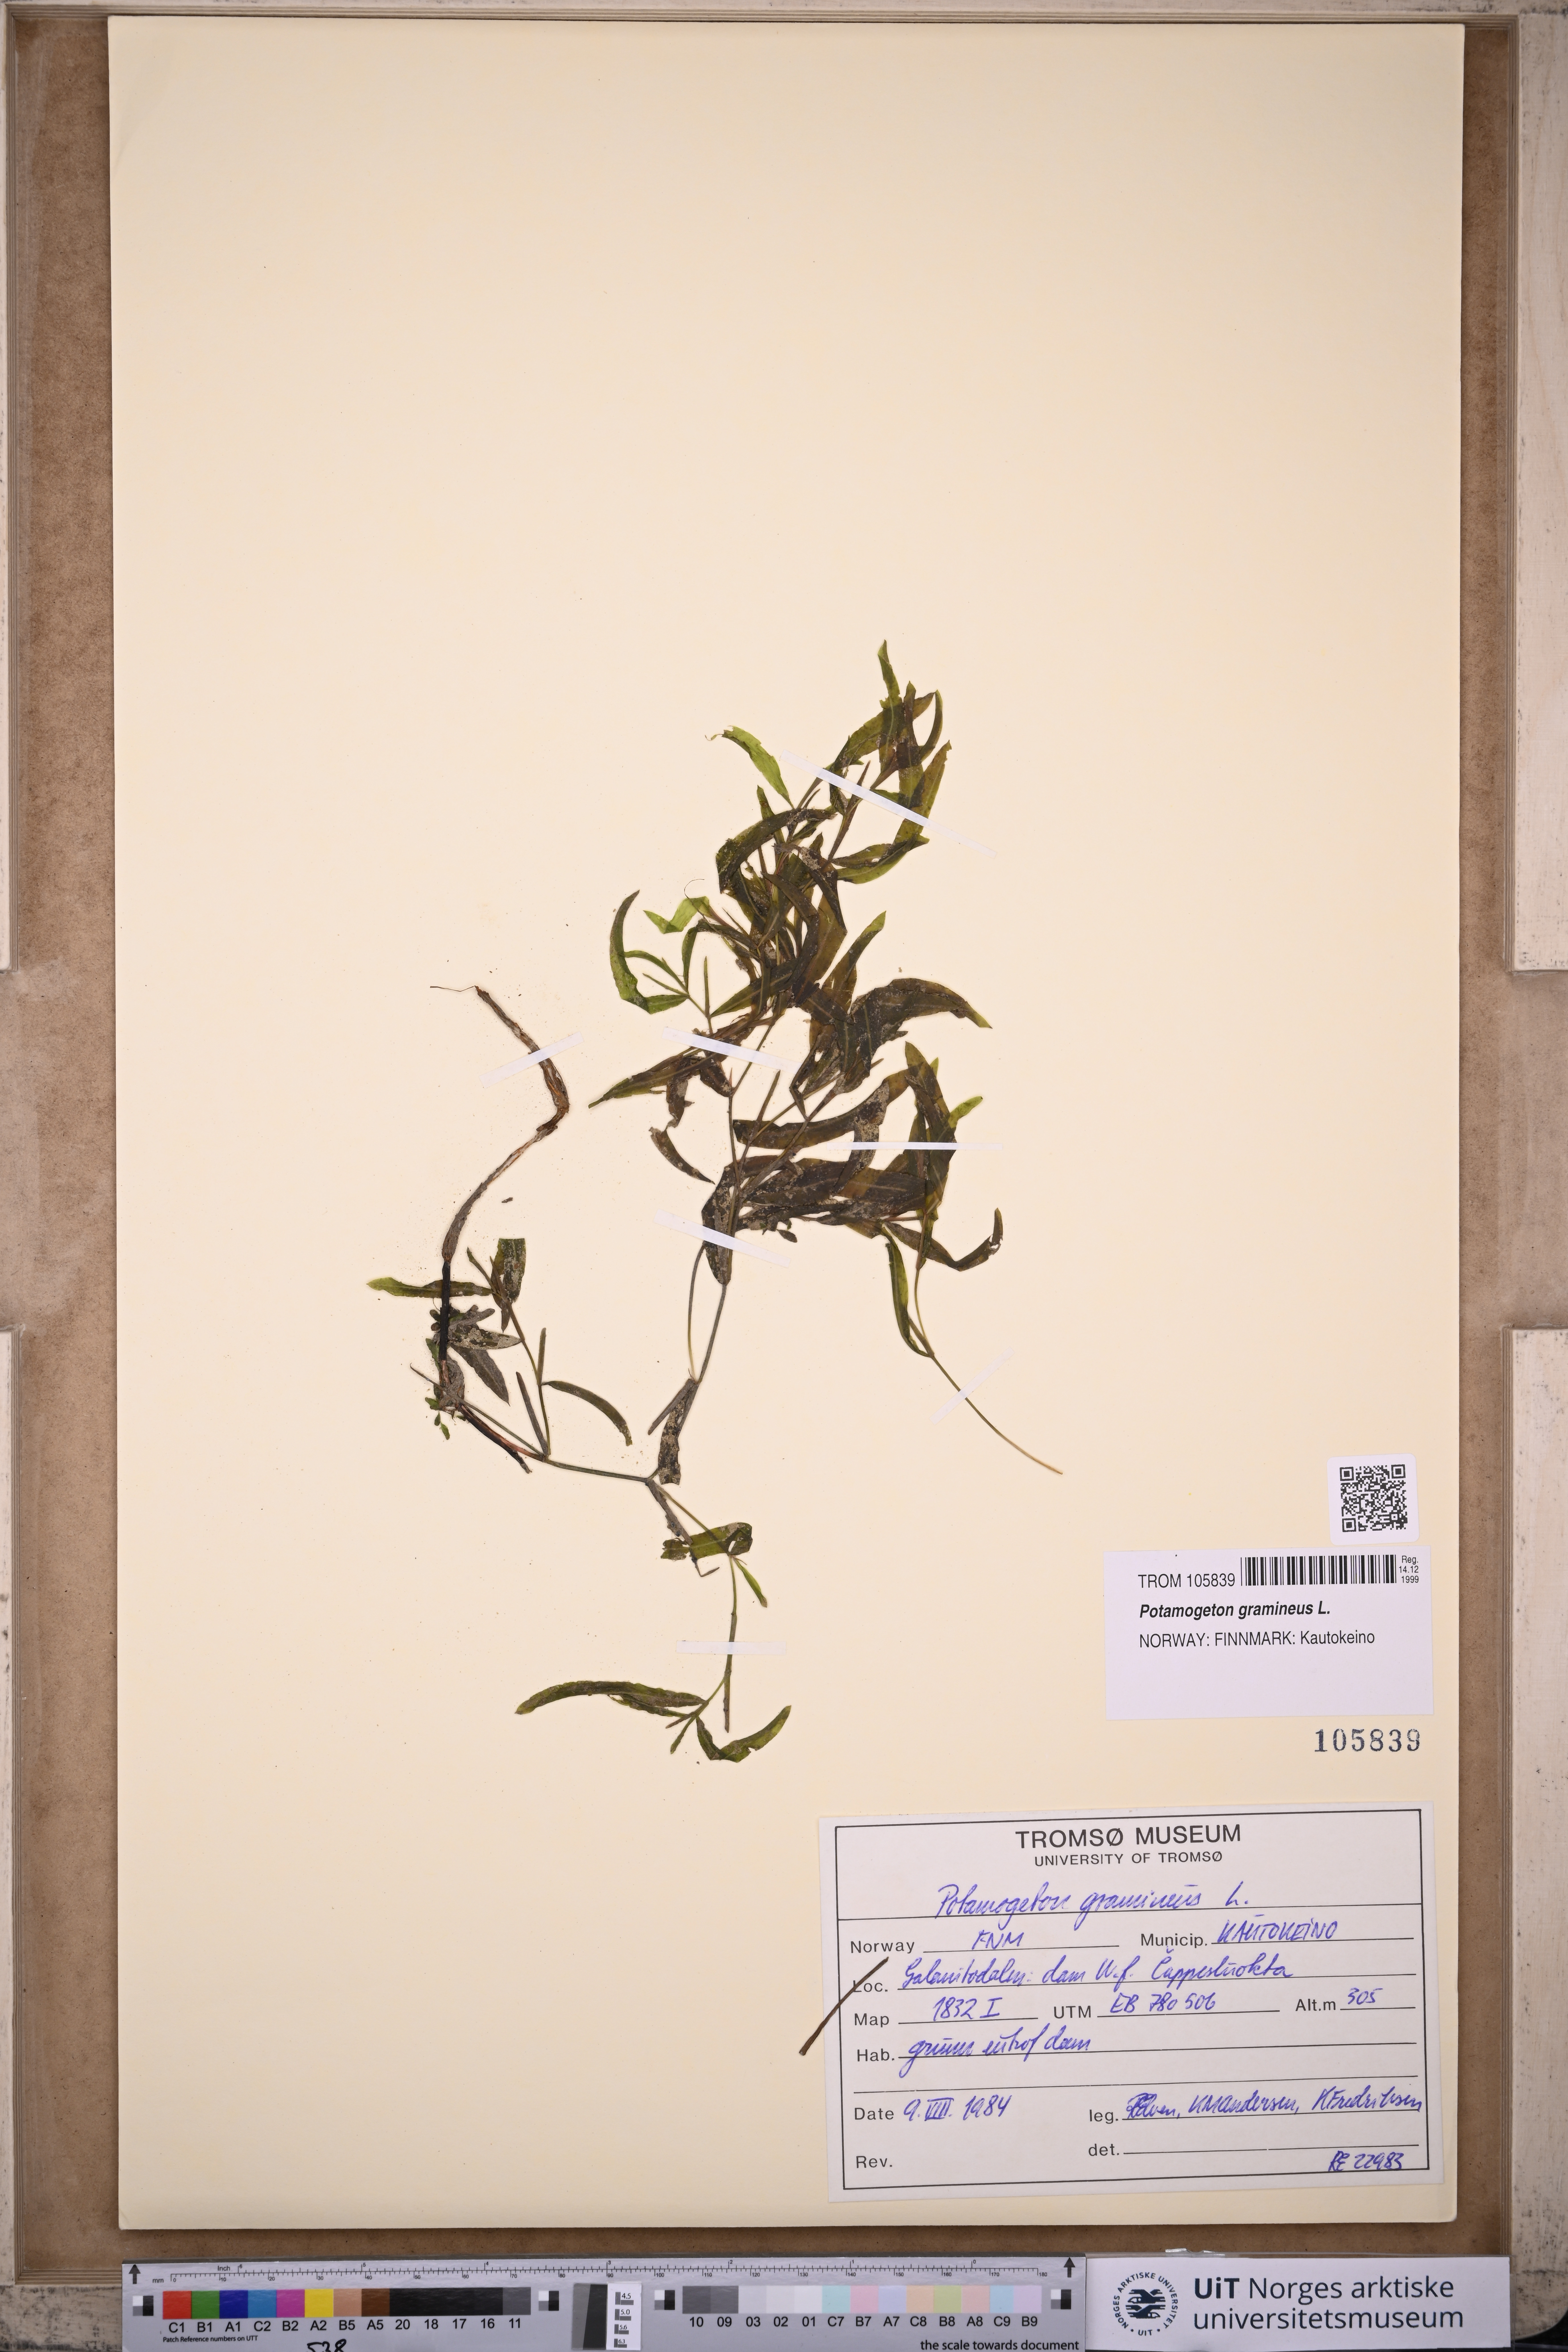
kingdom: Plantae
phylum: Tracheophyta
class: Liliopsida
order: Alismatales
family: Potamogetonaceae
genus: Potamogeton
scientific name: Potamogeton gramineus
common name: Various-leaved pondweed
